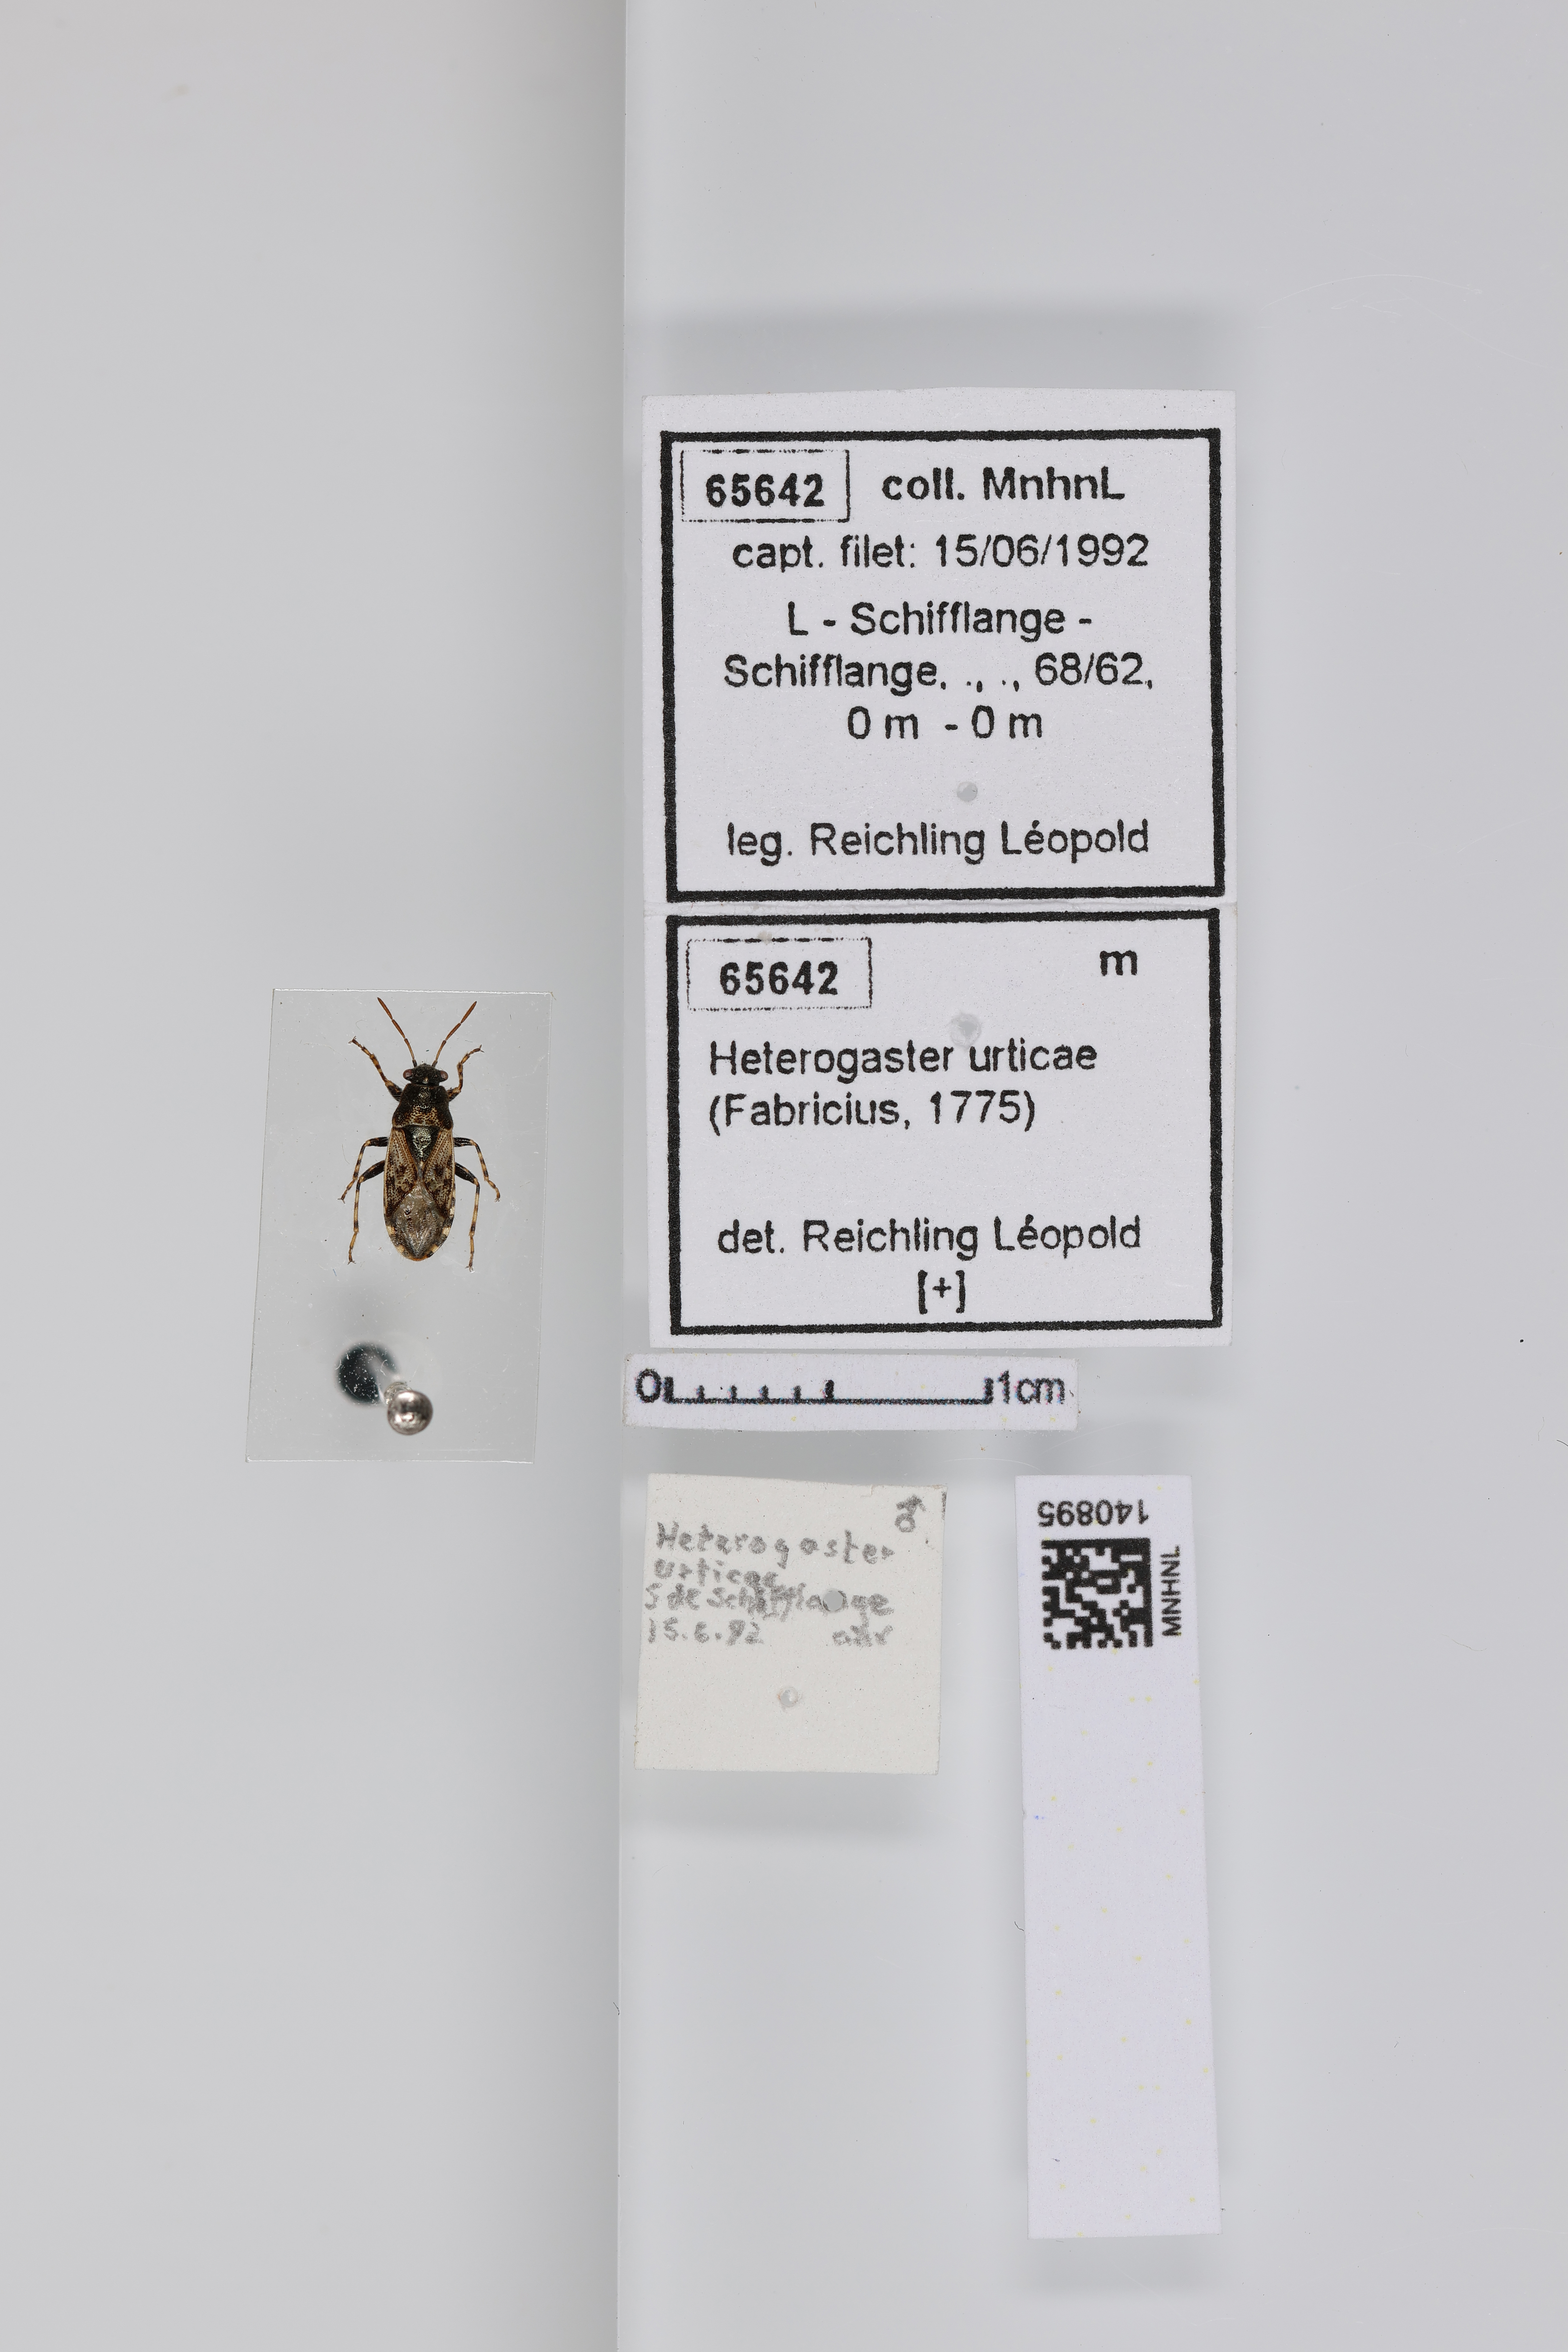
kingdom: Animalia
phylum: Arthropoda
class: Insecta
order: Hemiptera
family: Heterogastridae
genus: Heterogaster
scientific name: Heterogaster urticae
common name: Seed bug
